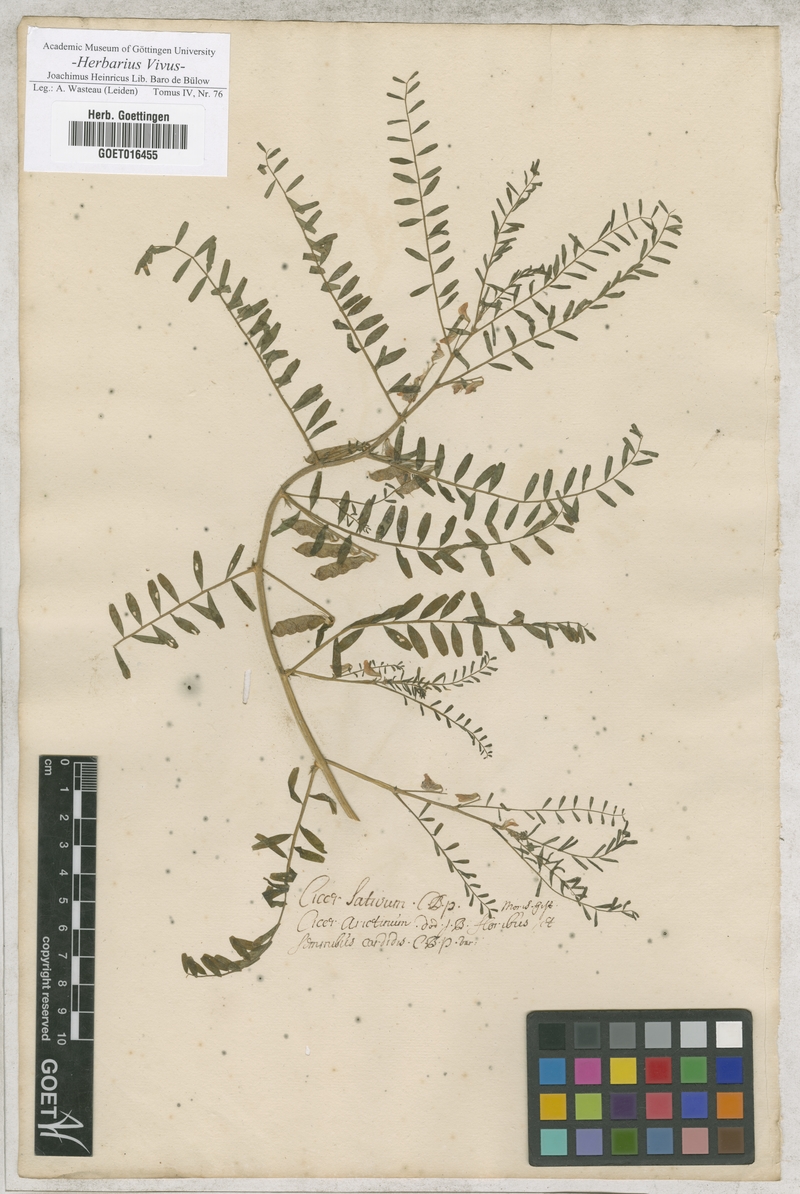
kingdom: Plantae
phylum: Tracheophyta
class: Magnoliopsida
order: Fabales
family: Fabaceae
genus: Cicer
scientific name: Cicer arietinum
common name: Chick pea
